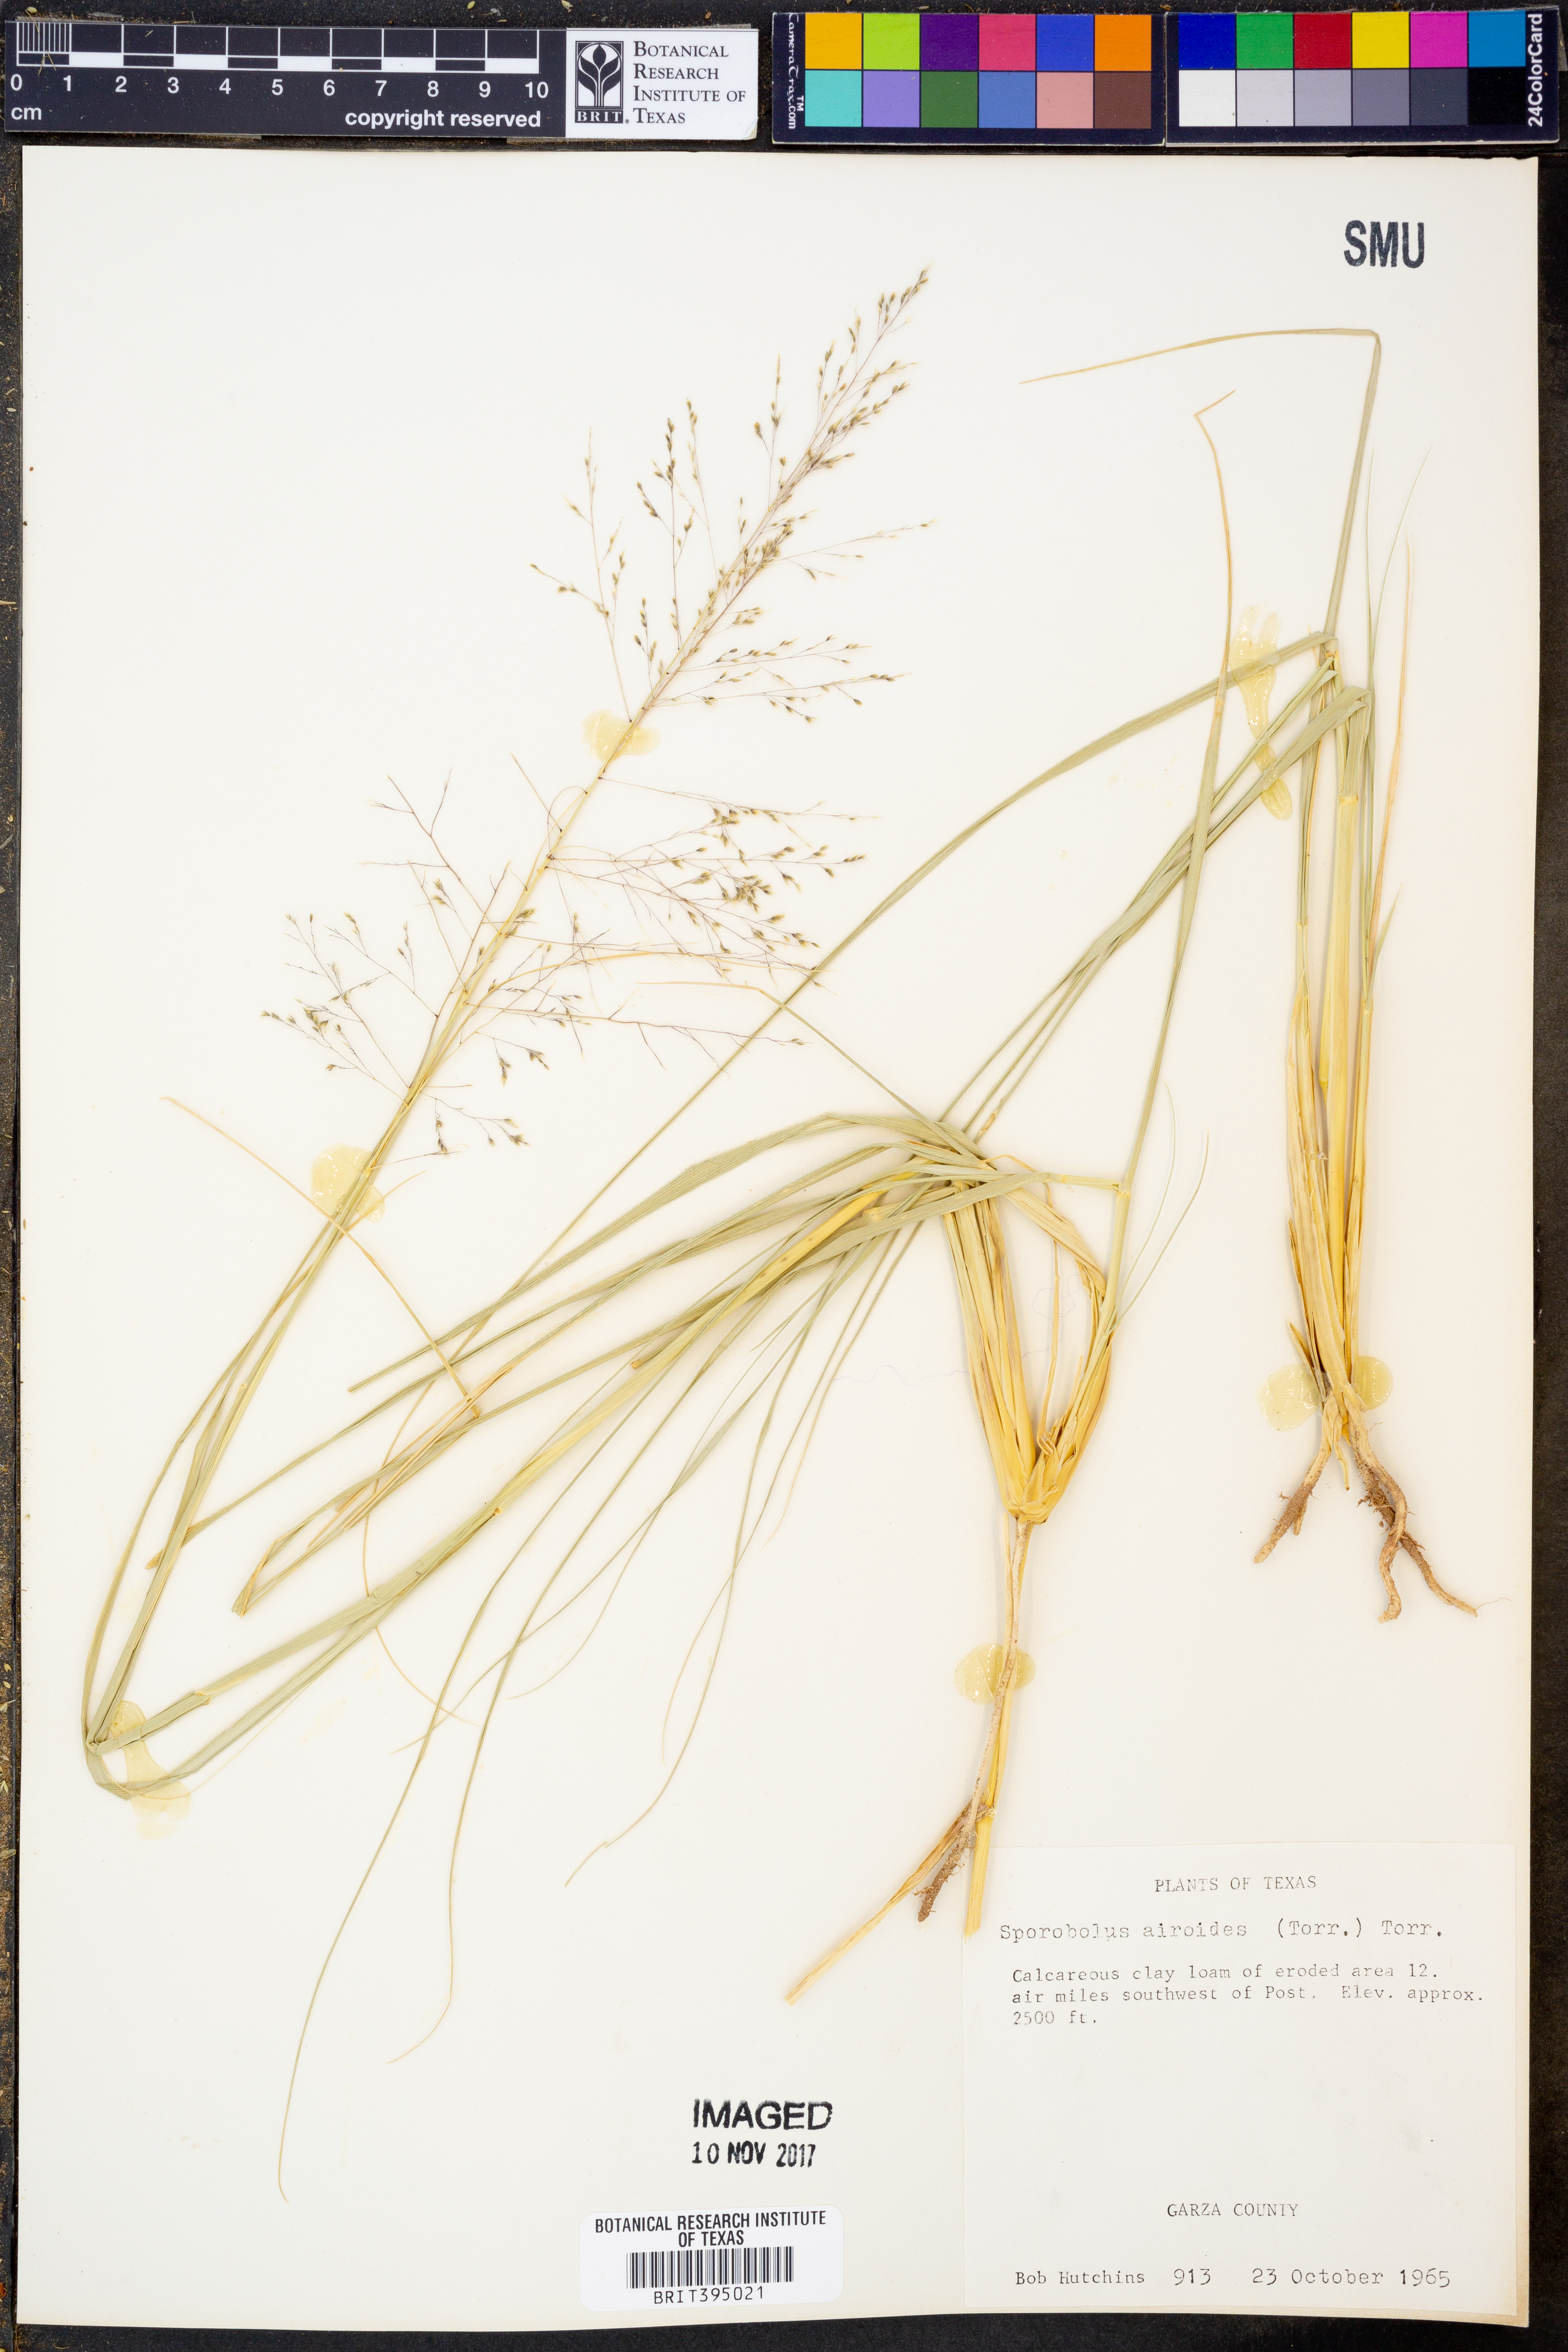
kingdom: Plantae
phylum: Tracheophyta
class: Liliopsida
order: Poales
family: Poaceae
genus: Sporobolus
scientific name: Sporobolus airoides
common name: Alkali sacaton
